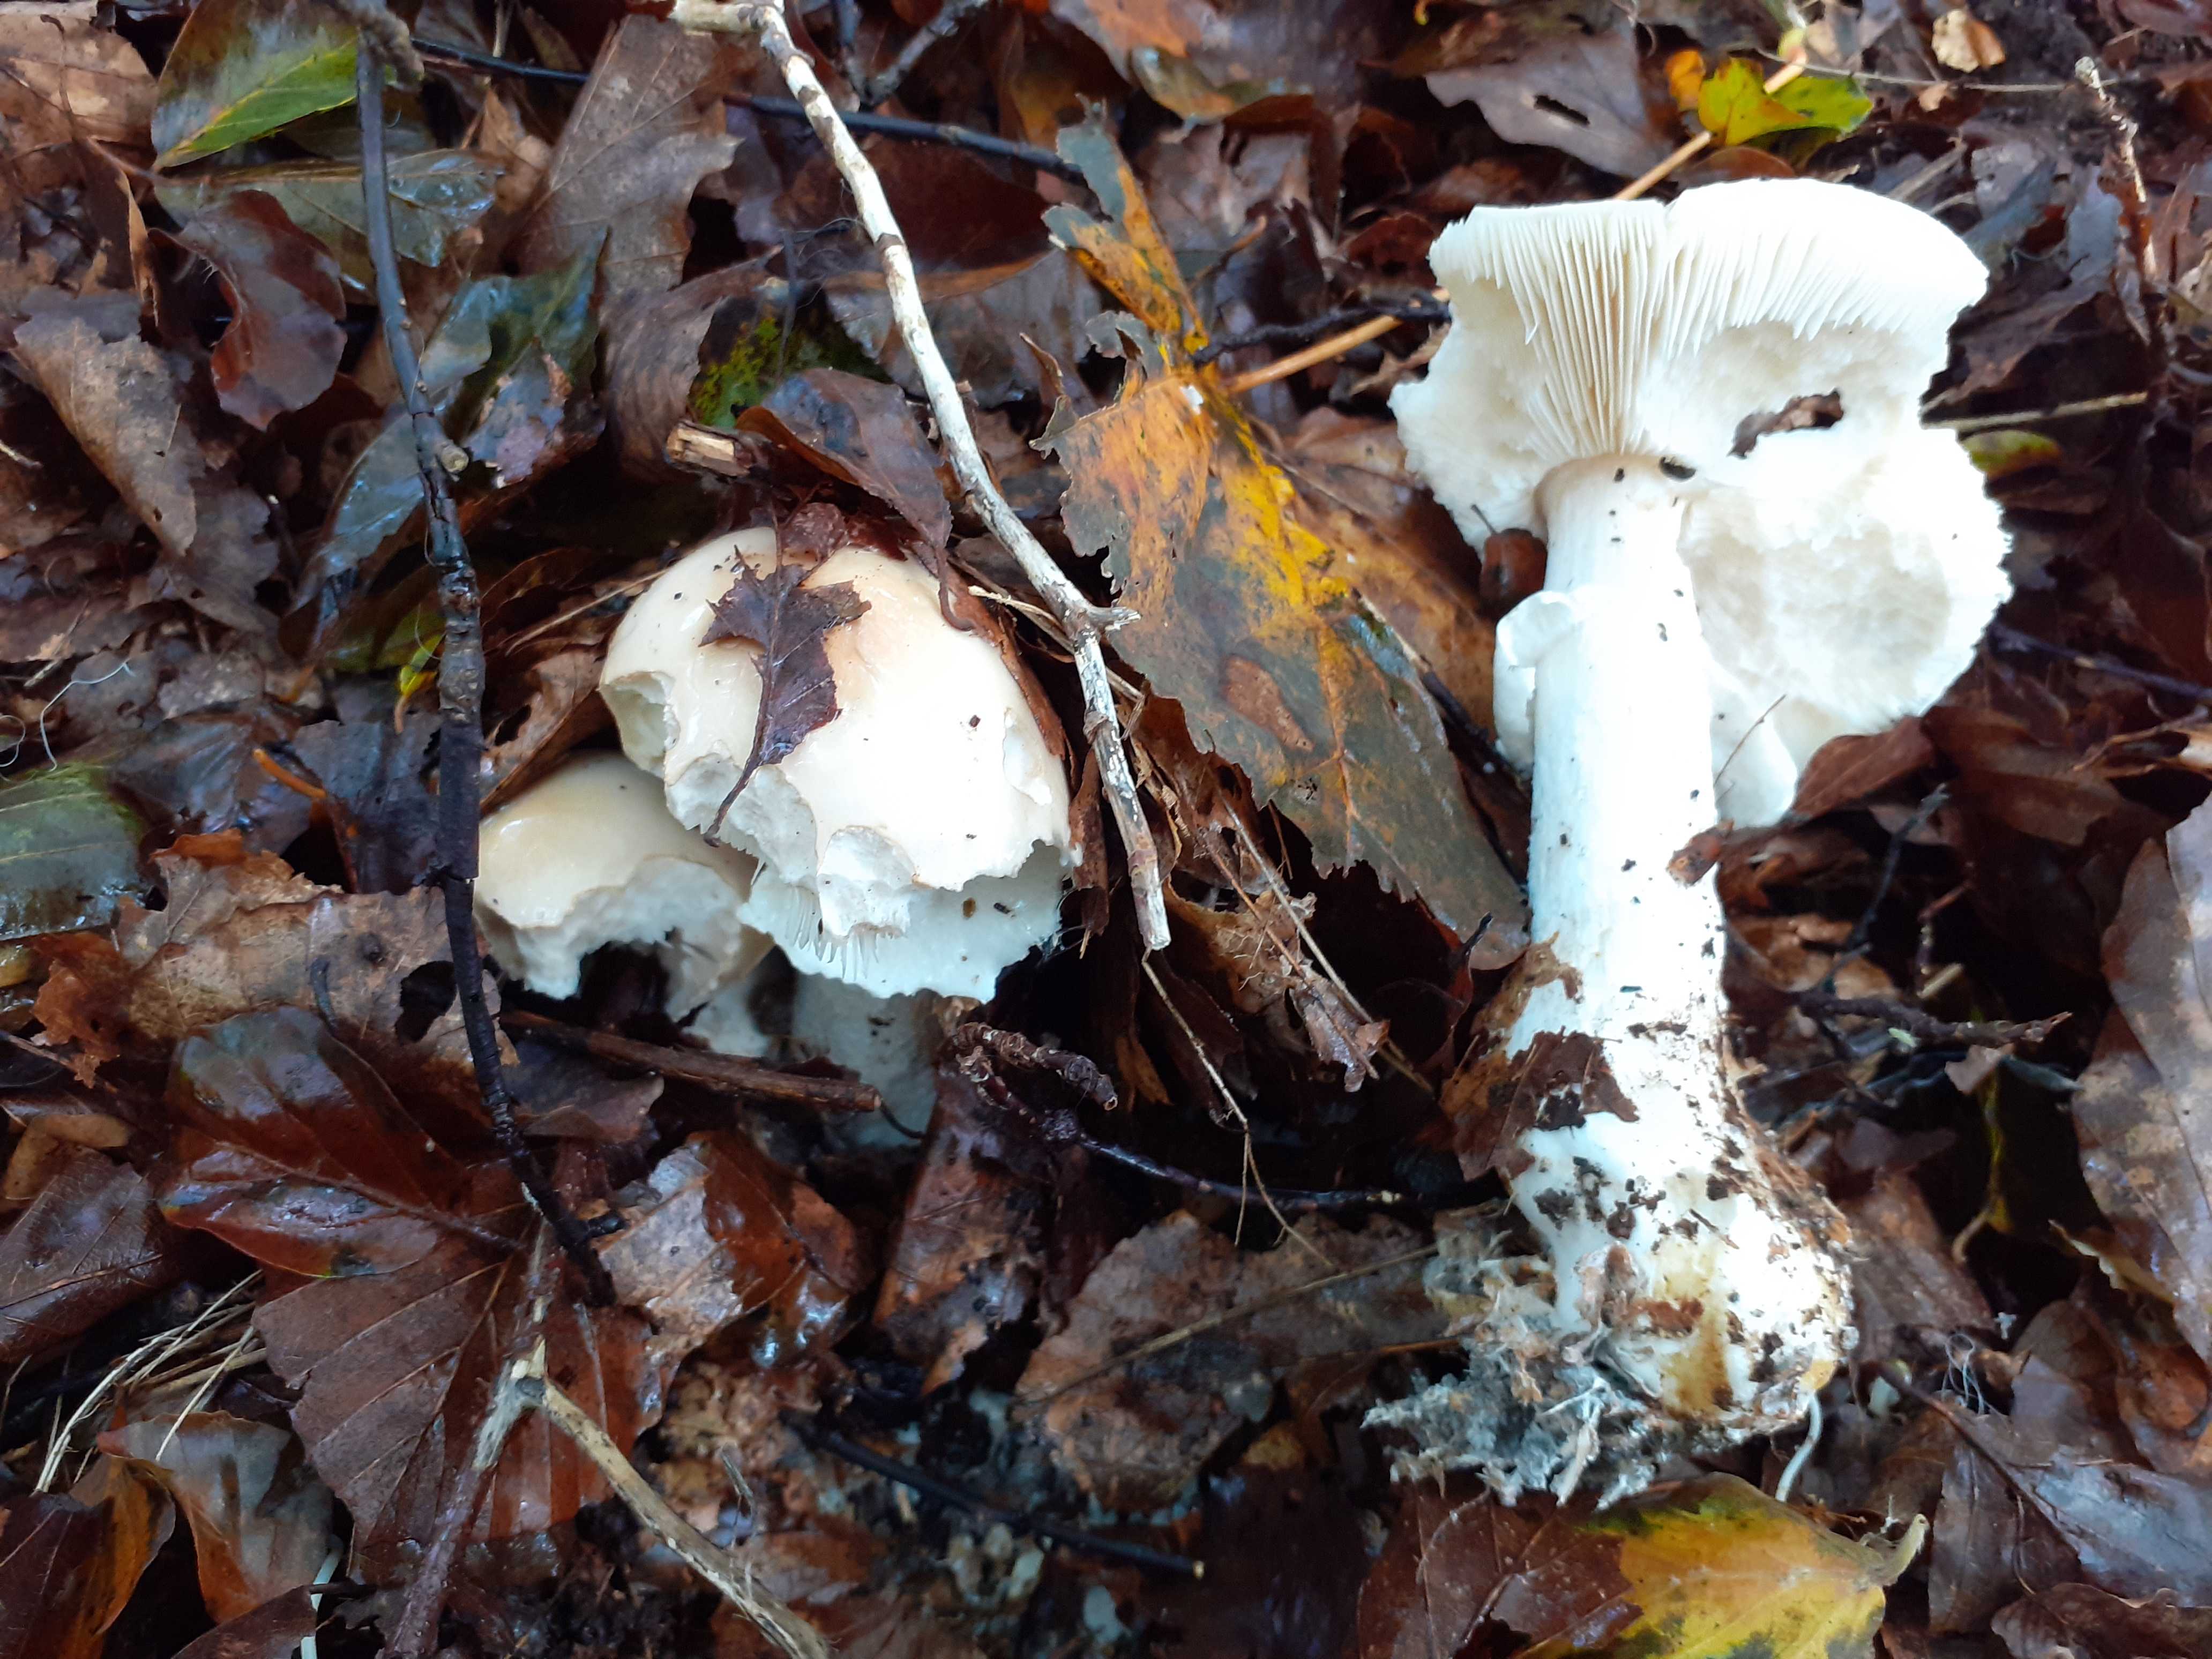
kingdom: Fungi
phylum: Basidiomycota
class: Agaricomycetes
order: Agaricales
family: Amanitaceae
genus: Limacellopsis
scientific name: Limacellopsis guttata
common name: tåre-snekkehat
